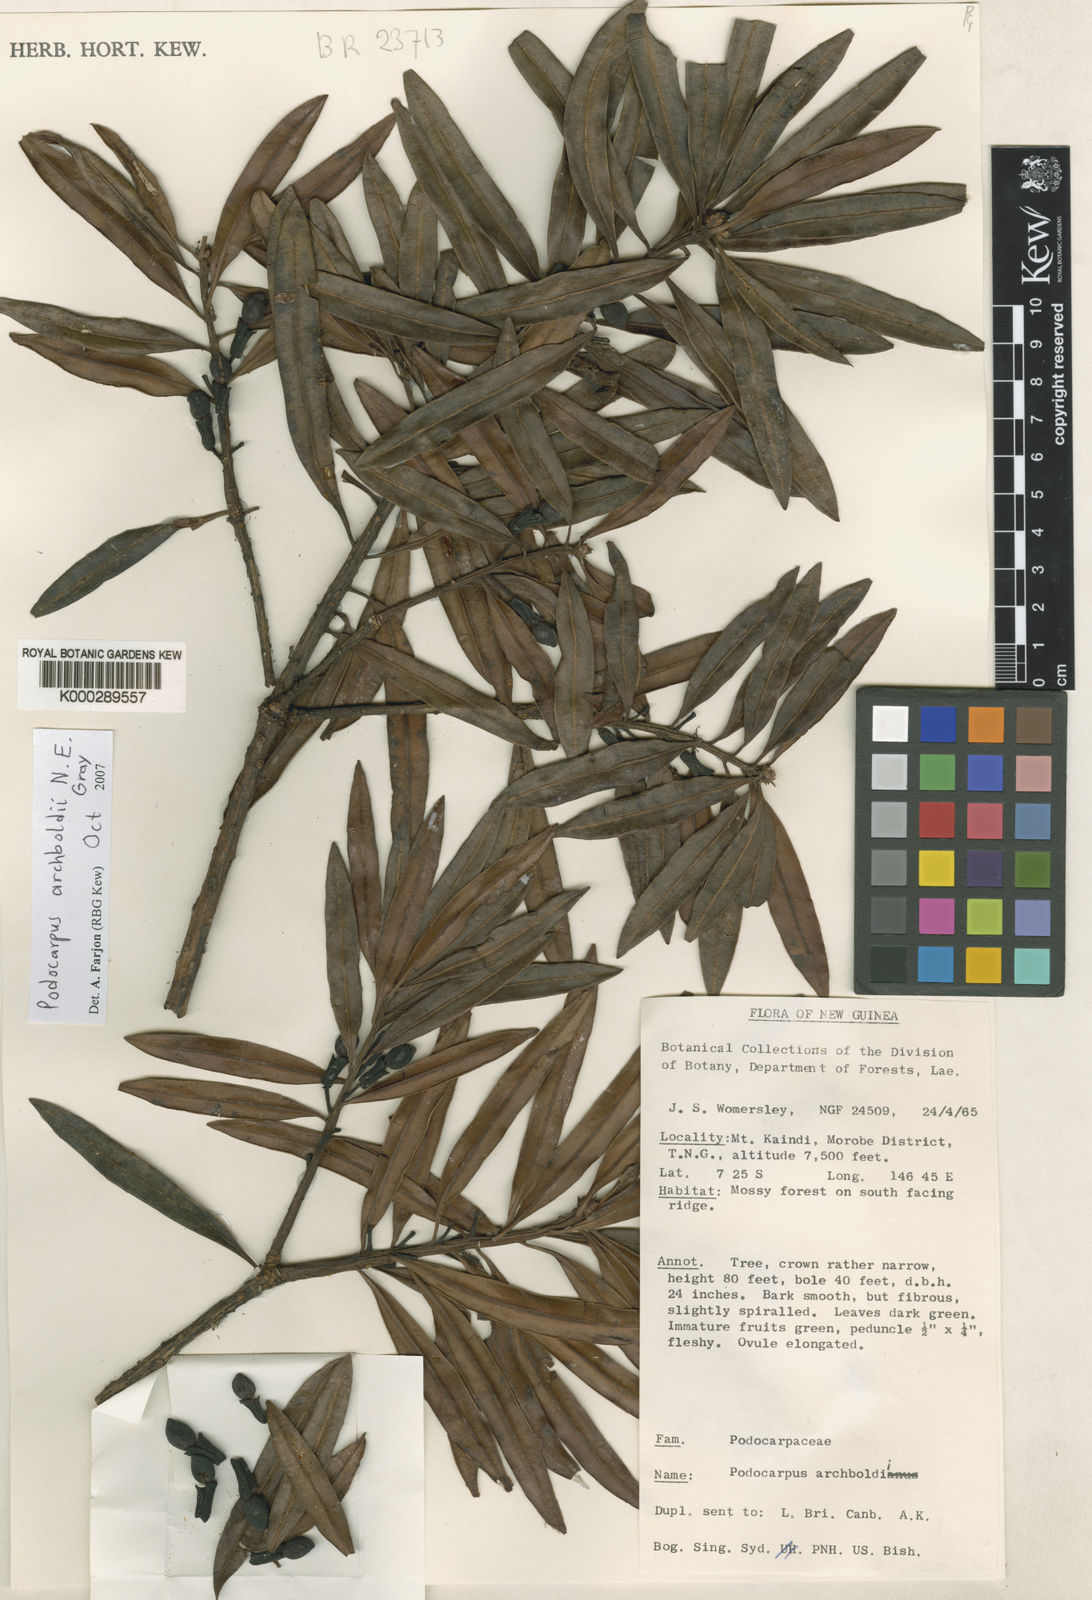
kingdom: Plantae
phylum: Tracheophyta
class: Pinopsida
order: Pinales
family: Podocarpaceae
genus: Podocarpus
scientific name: Podocarpus archboldii
